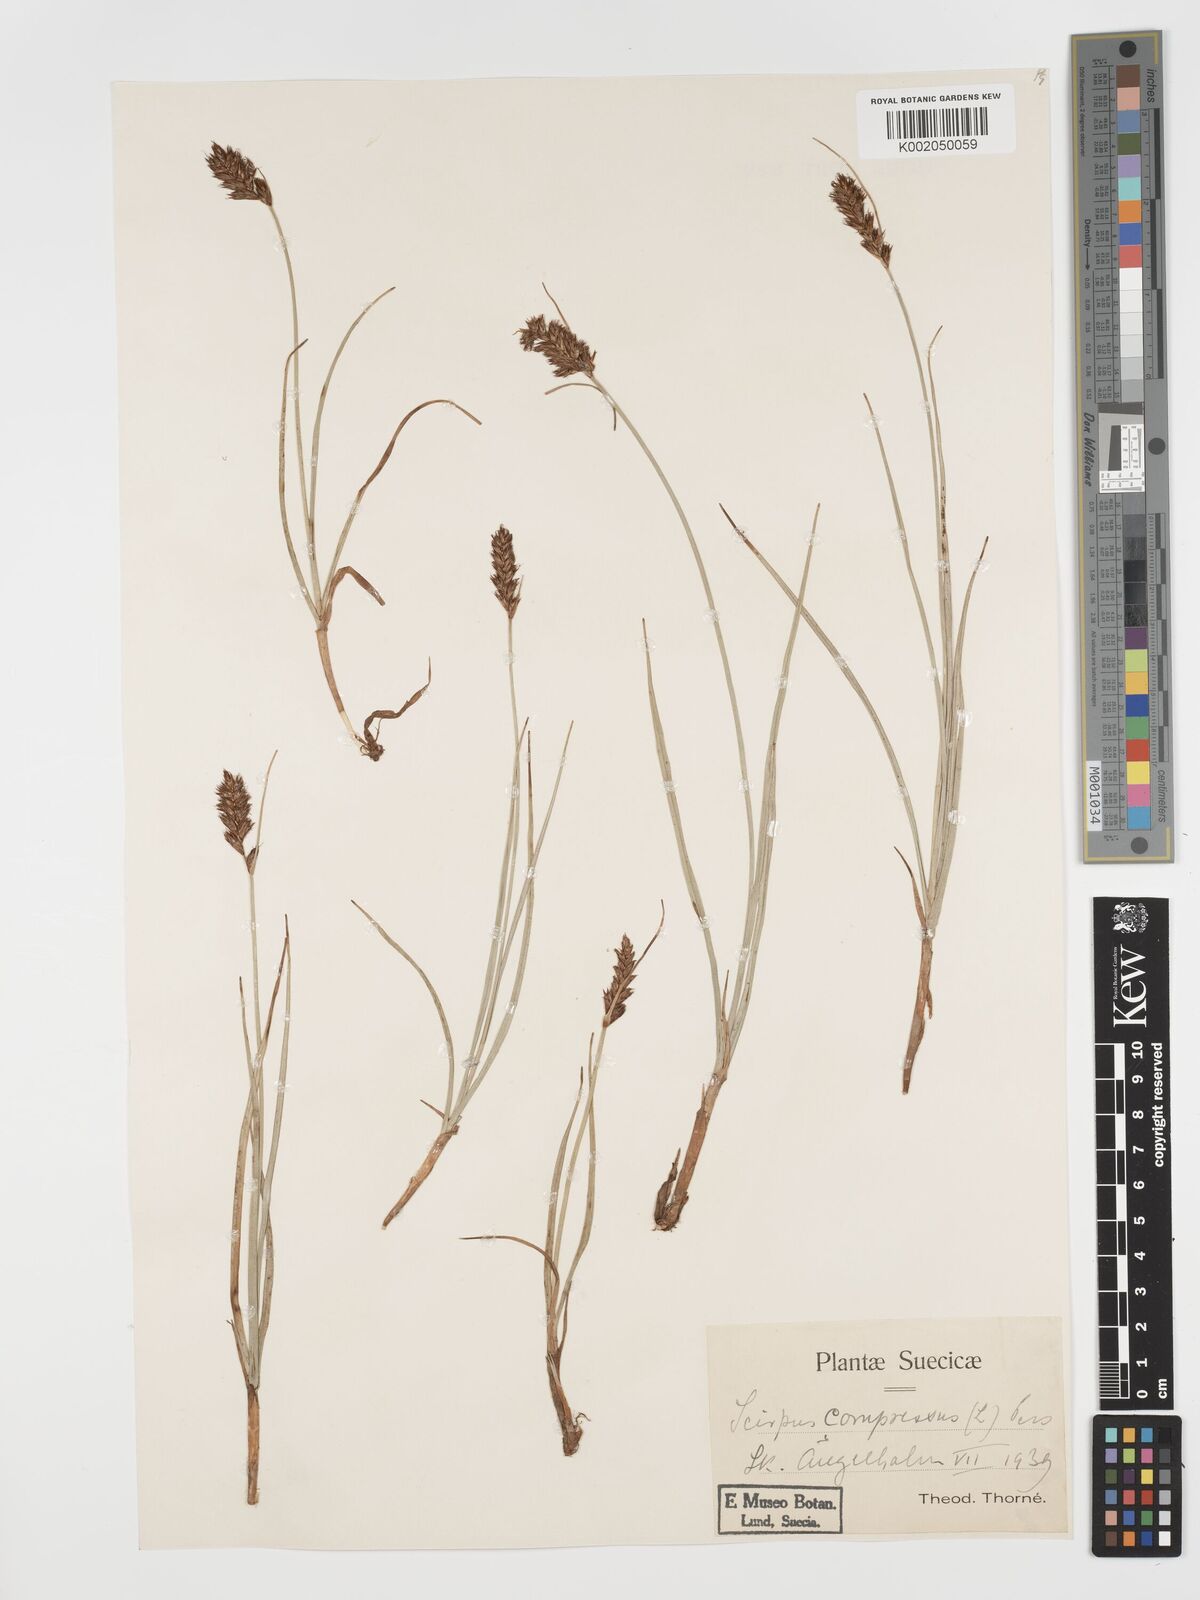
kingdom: Plantae
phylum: Tracheophyta
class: Liliopsida
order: Poales
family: Cyperaceae
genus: Blysmus
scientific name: Blysmus compressus
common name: Flat-sedge
